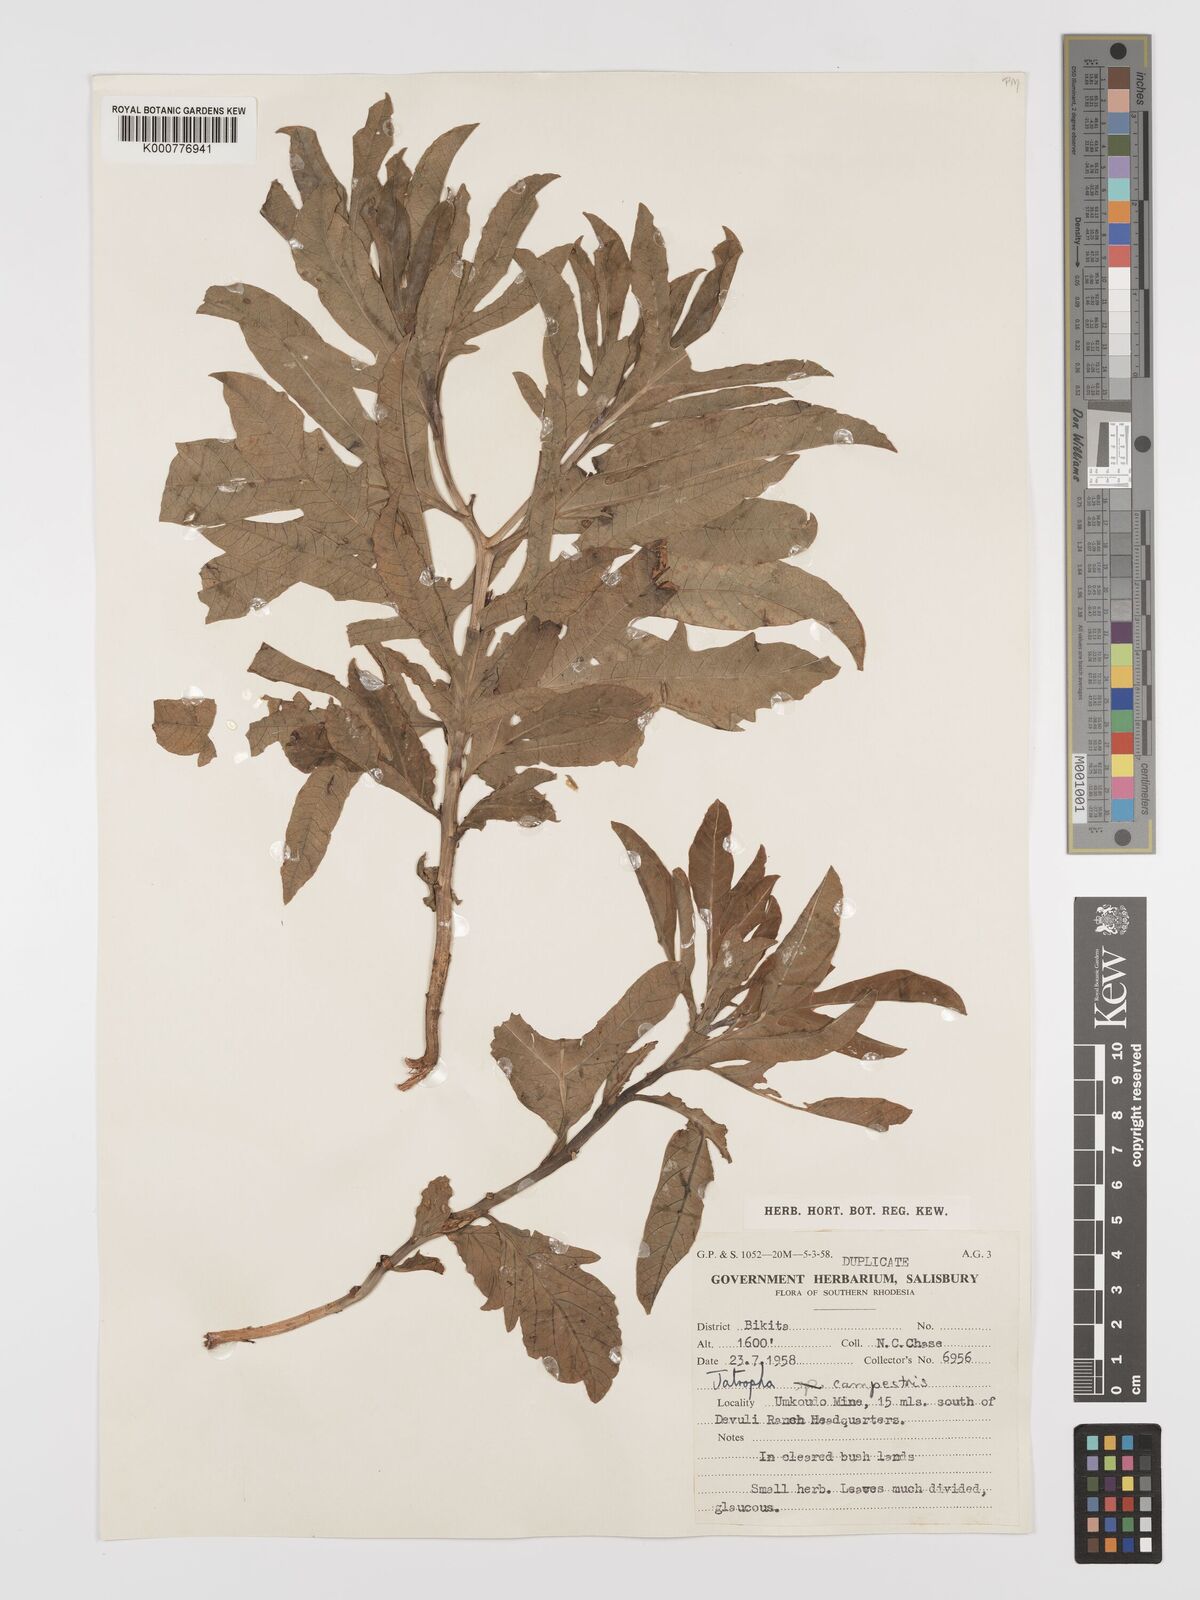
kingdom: Plantae
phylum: Tracheophyta
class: Magnoliopsida
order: Malpighiales
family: Euphorbiaceae
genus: Jatropha
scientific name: Jatropha campestris
